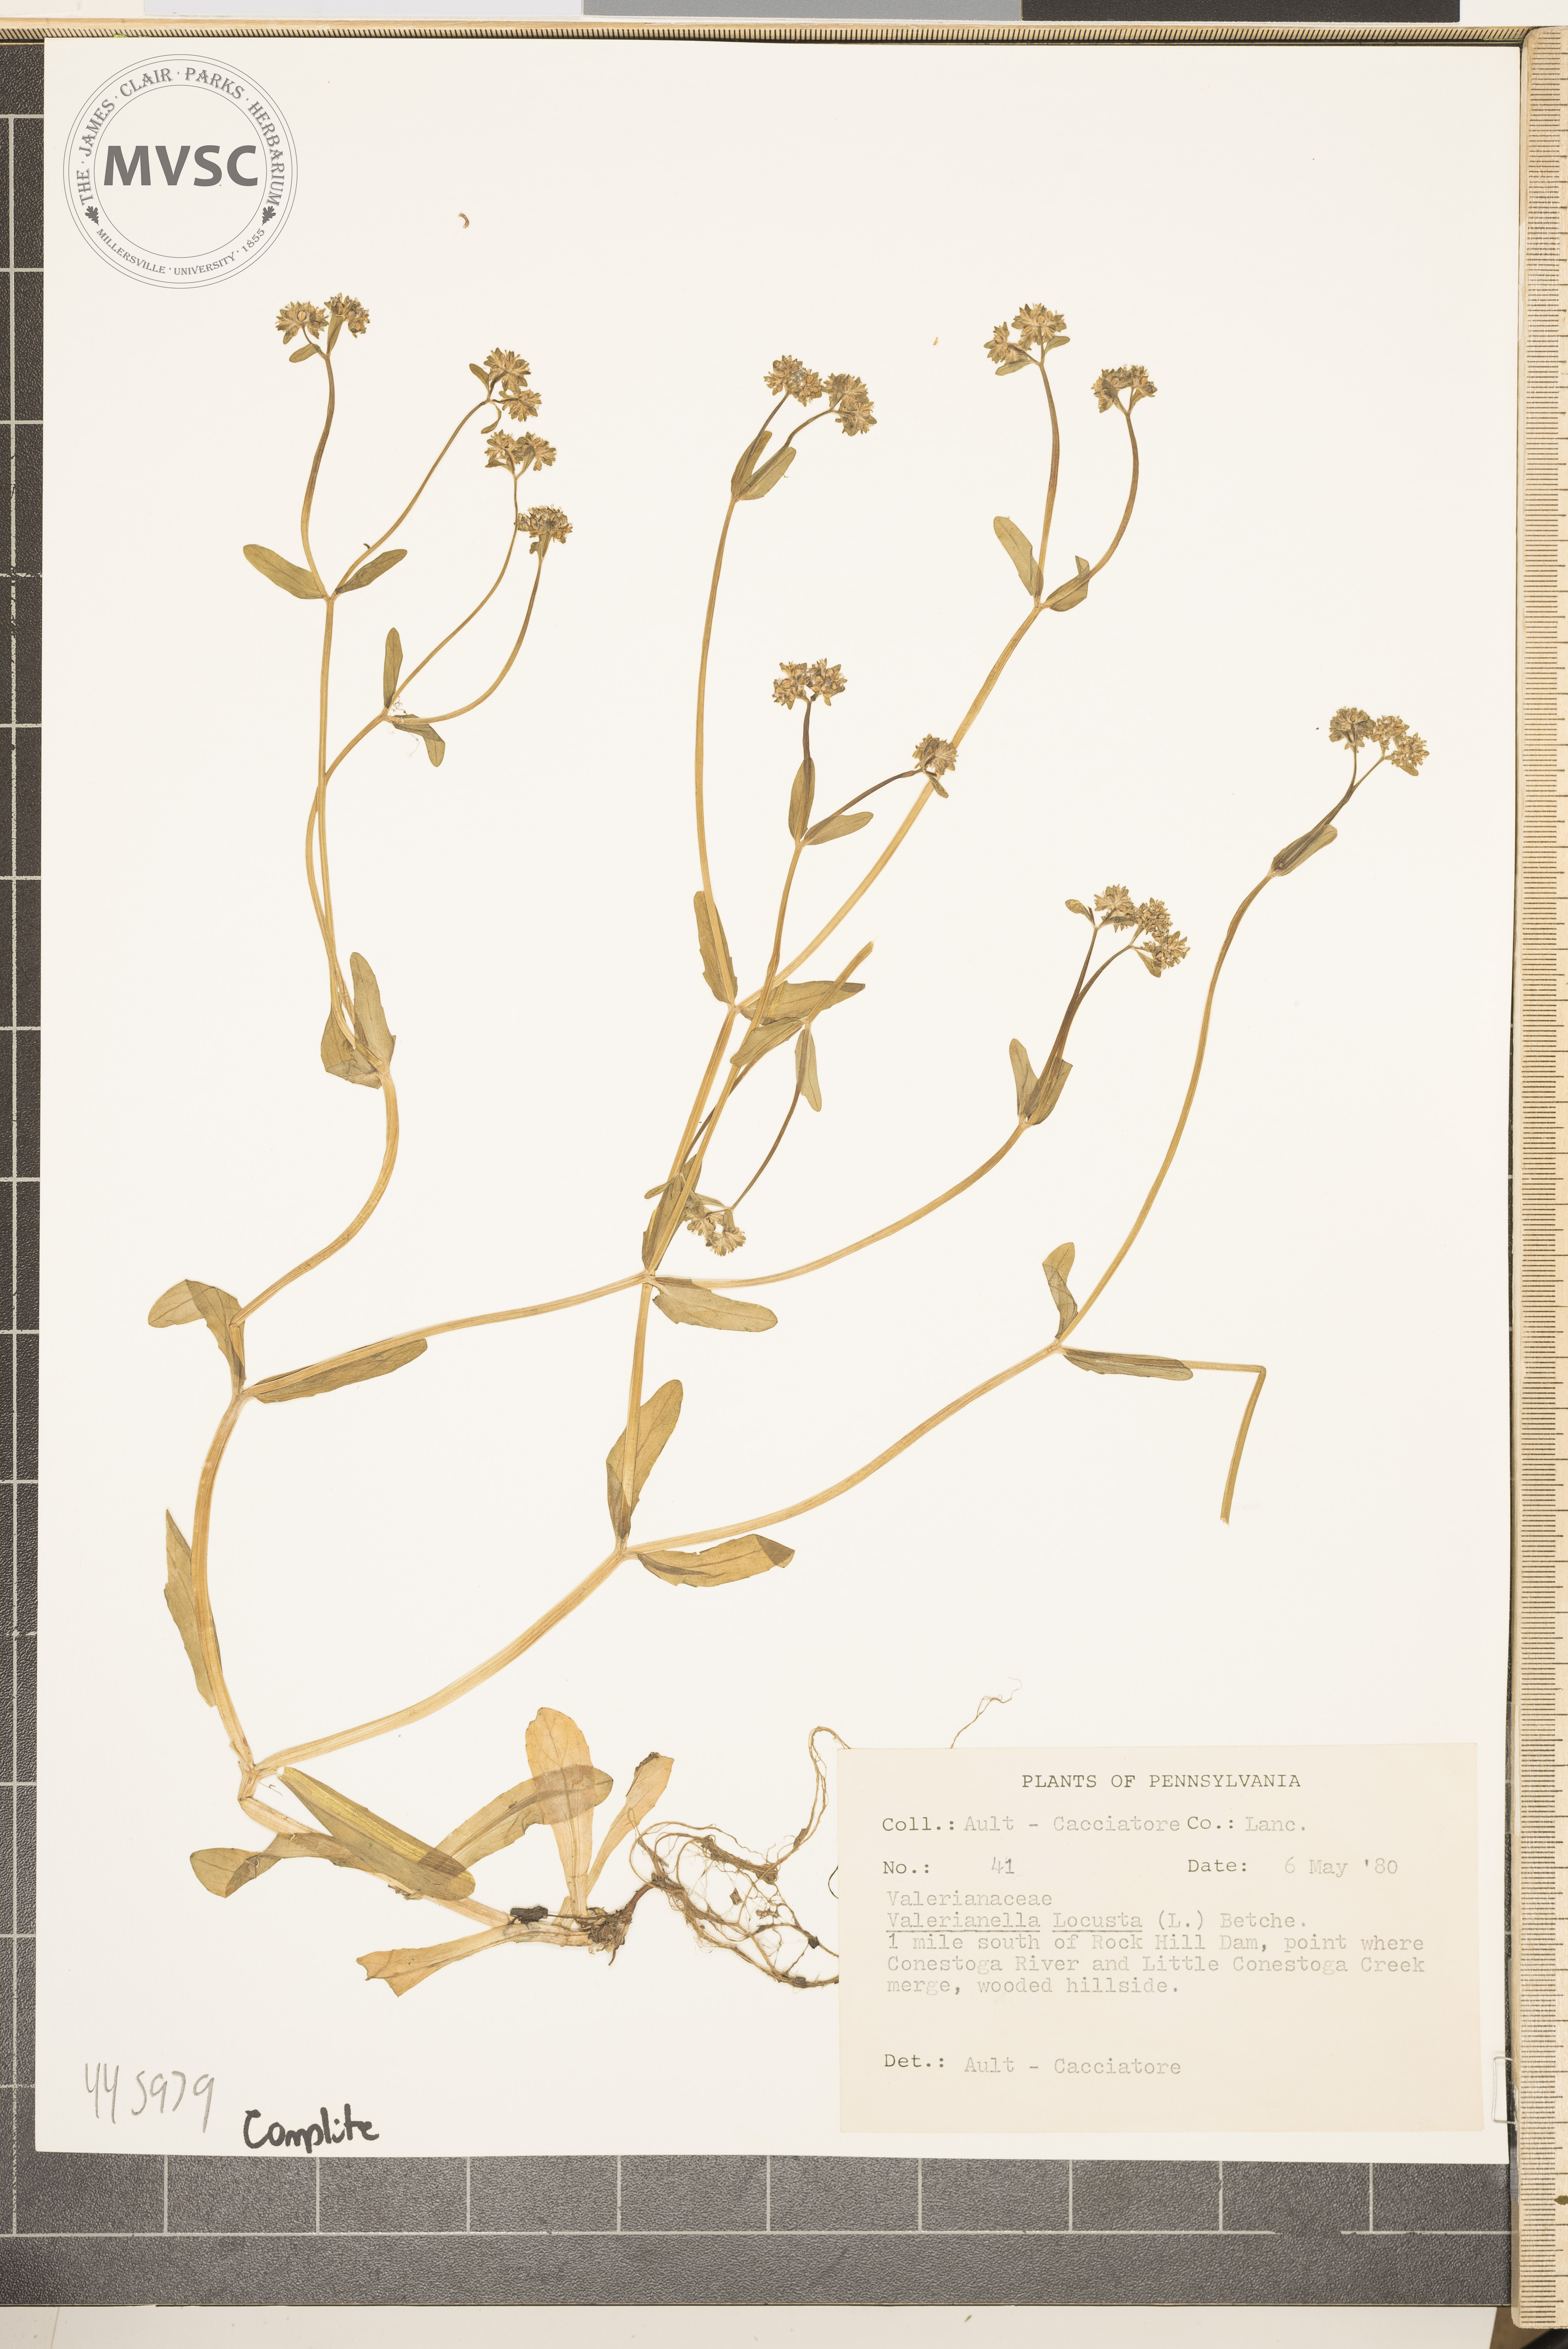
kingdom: Plantae
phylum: Tracheophyta
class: Magnoliopsida
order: Dipsacales
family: Caprifoliaceae
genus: Valerianella
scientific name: Valerianella locusta
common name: Common cornsalad
